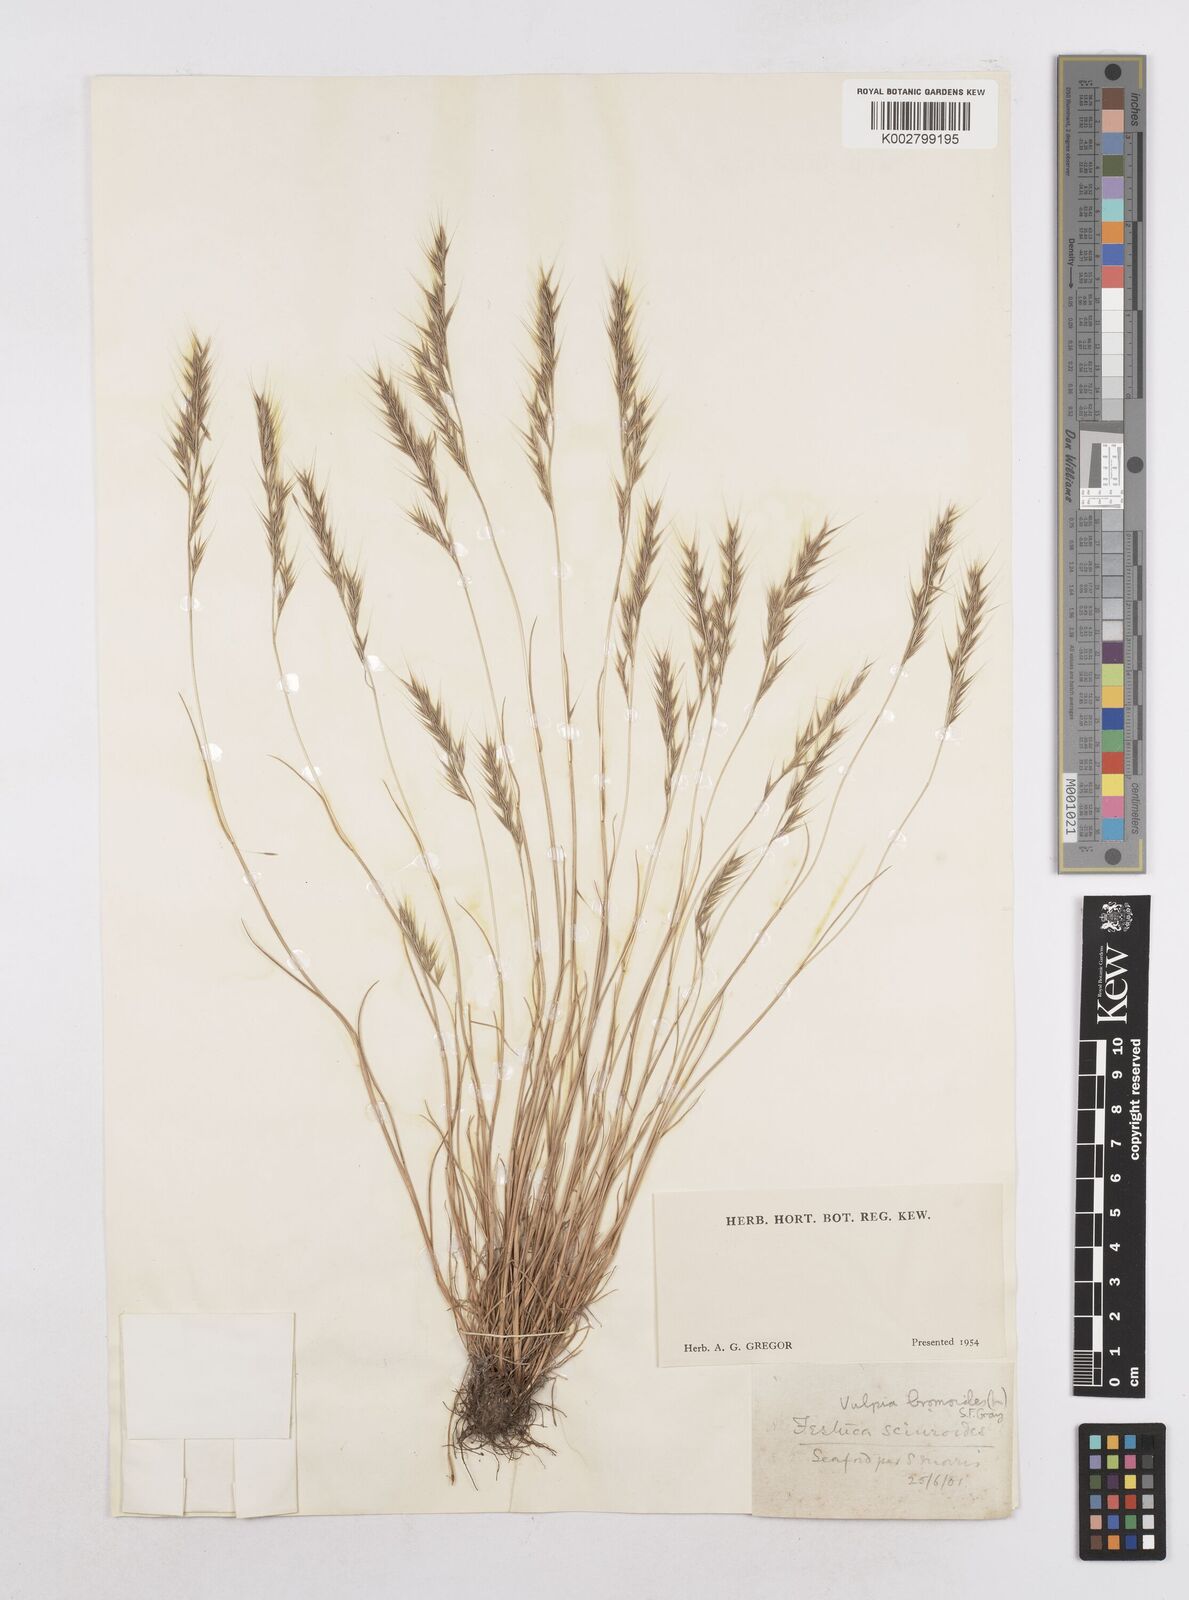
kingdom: Plantae
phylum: Tracheophyta
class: Liliopsida
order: Poales
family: Poaceae
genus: Festuca
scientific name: Festuca bromoides
